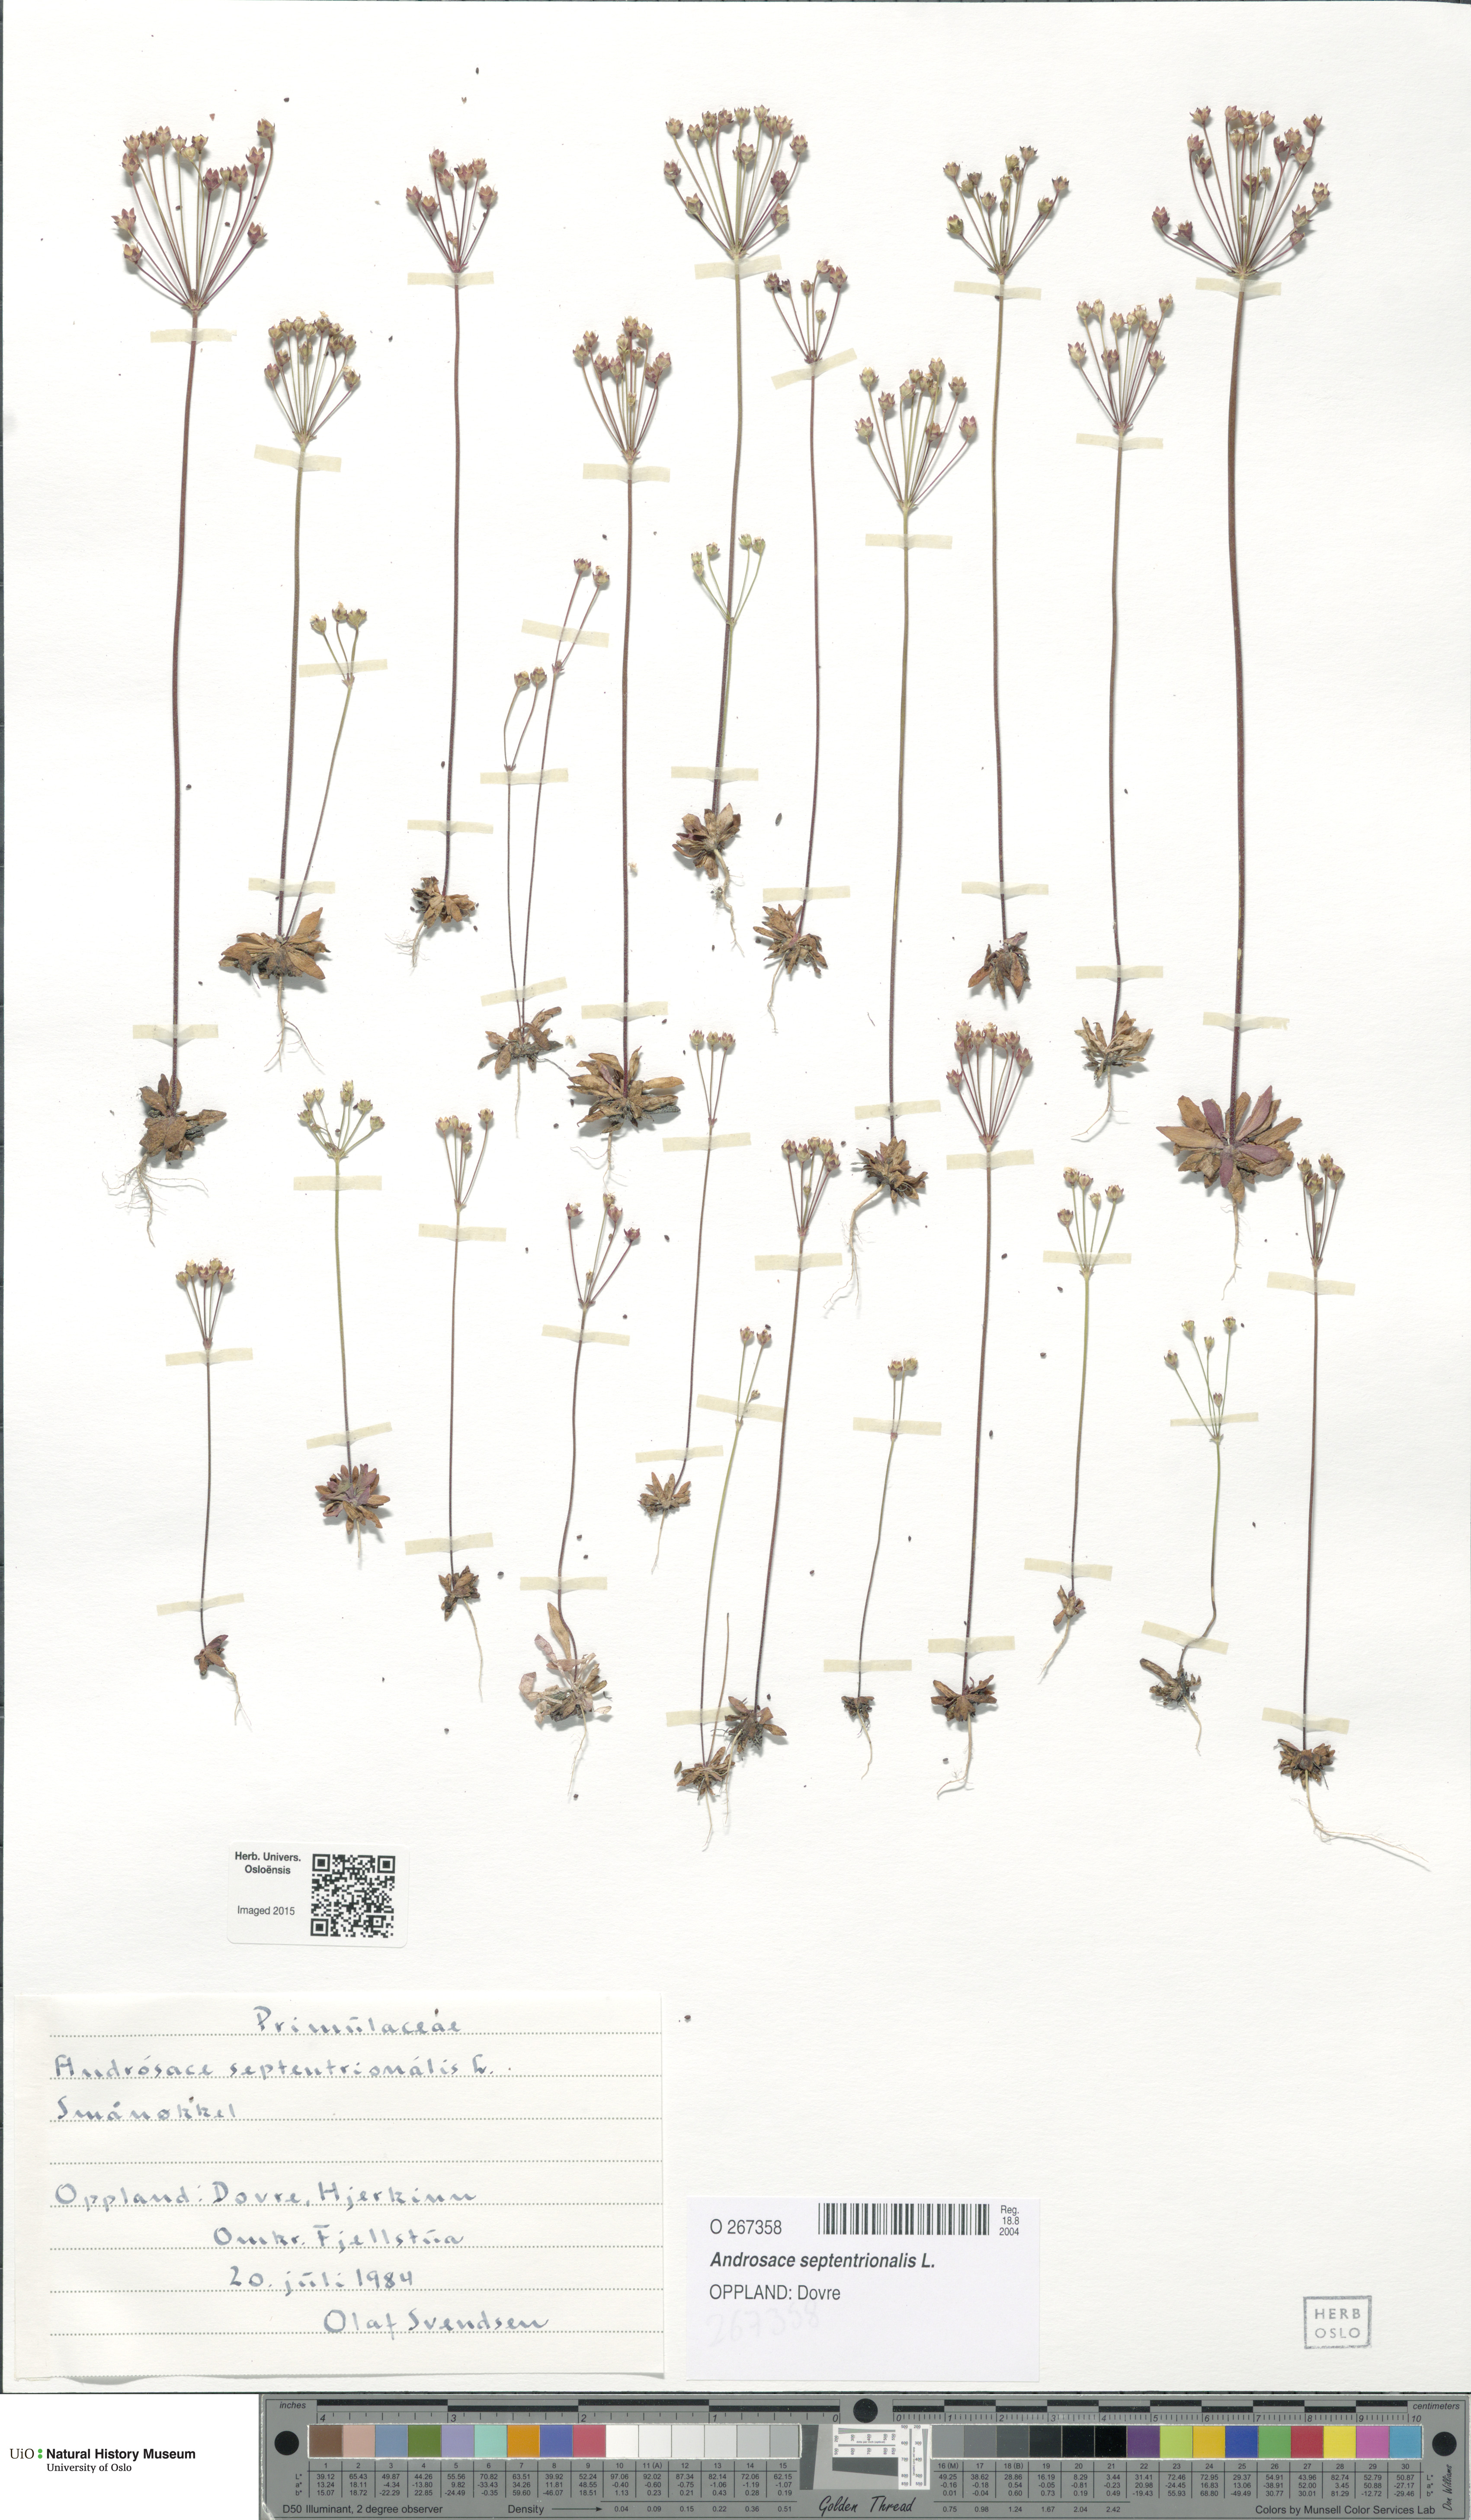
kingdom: Plantae
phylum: Tracheophyta
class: Magnoliopsida
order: Ericales
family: Primulaceae
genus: Androsace
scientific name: Androsace septentrionalis
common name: Hairy northern fairy-candelabra
